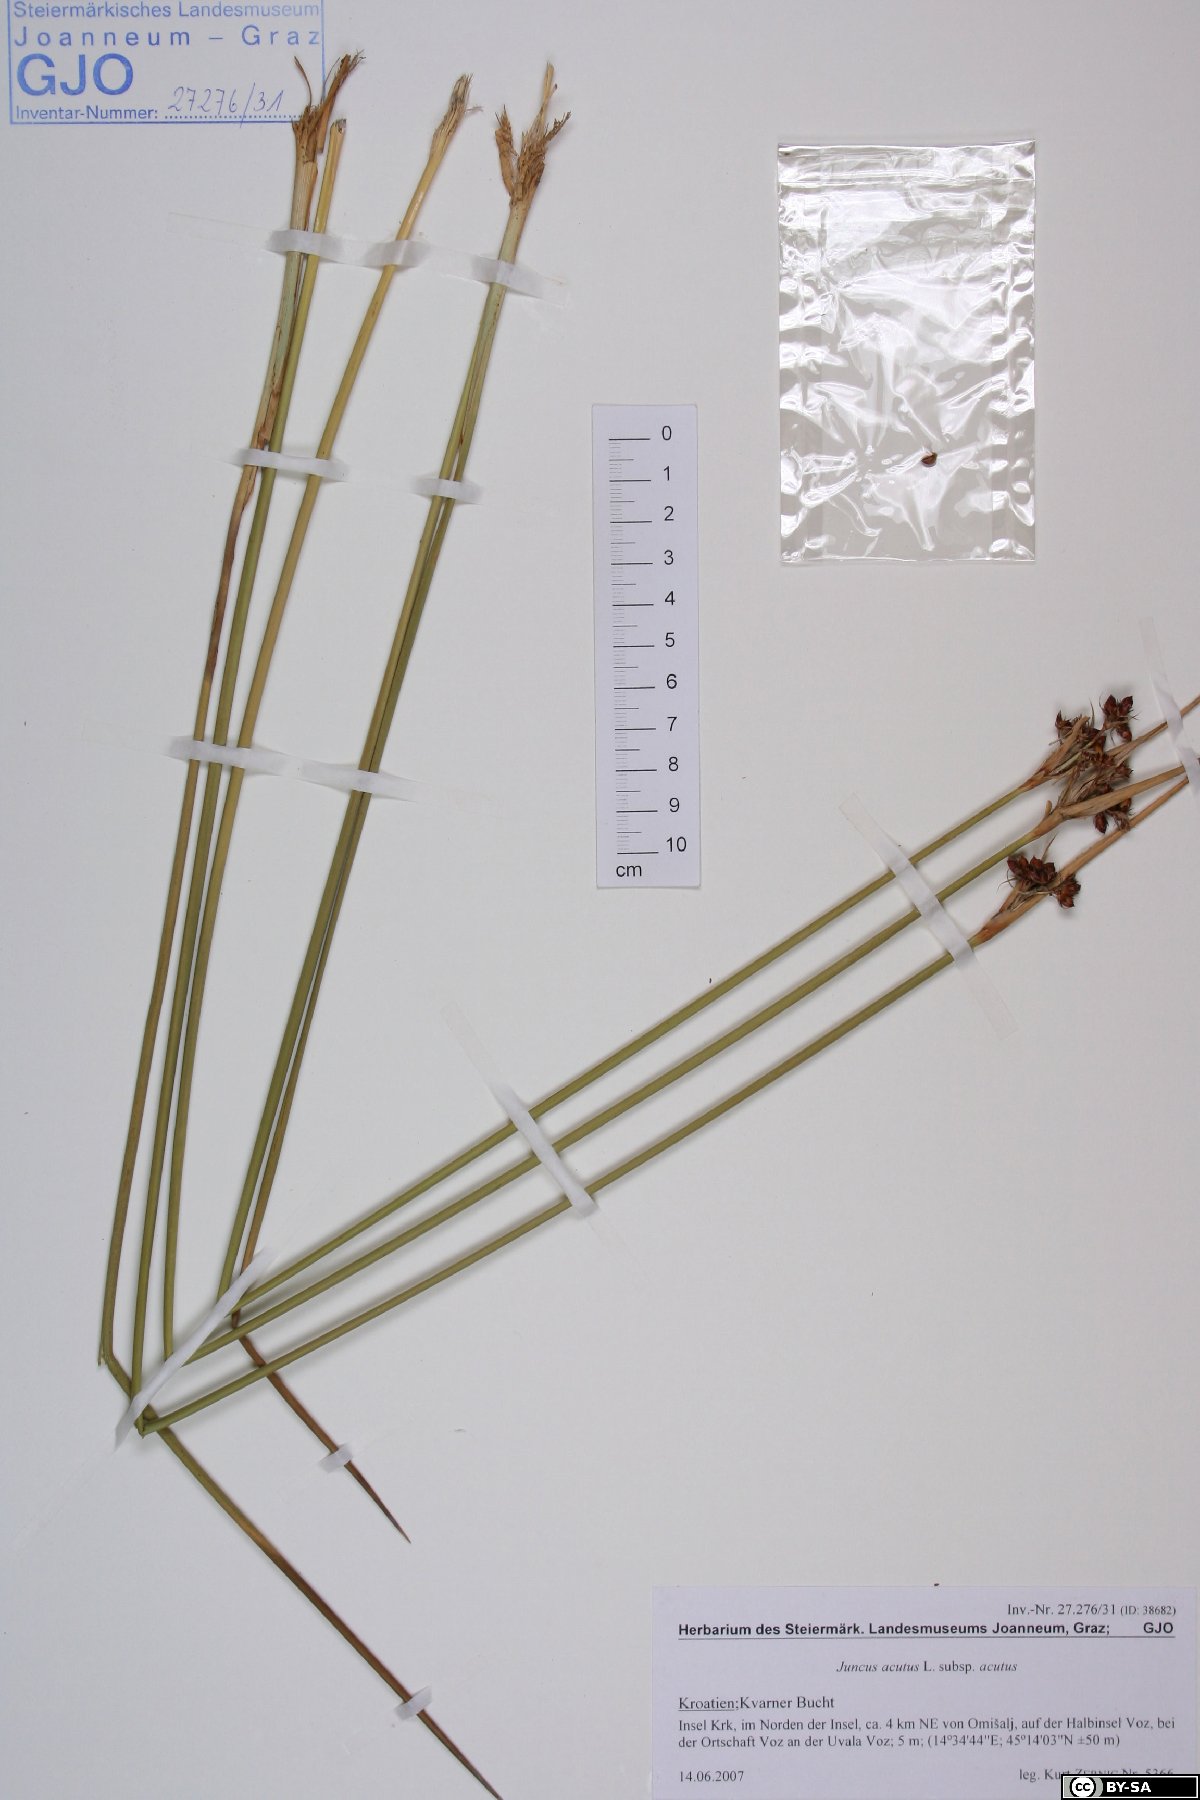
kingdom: Plantae
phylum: Tracheophyta
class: Liliopsida
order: Poales
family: Juncaceae
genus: Juncus
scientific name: Juncus acutus
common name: Sharp rush
